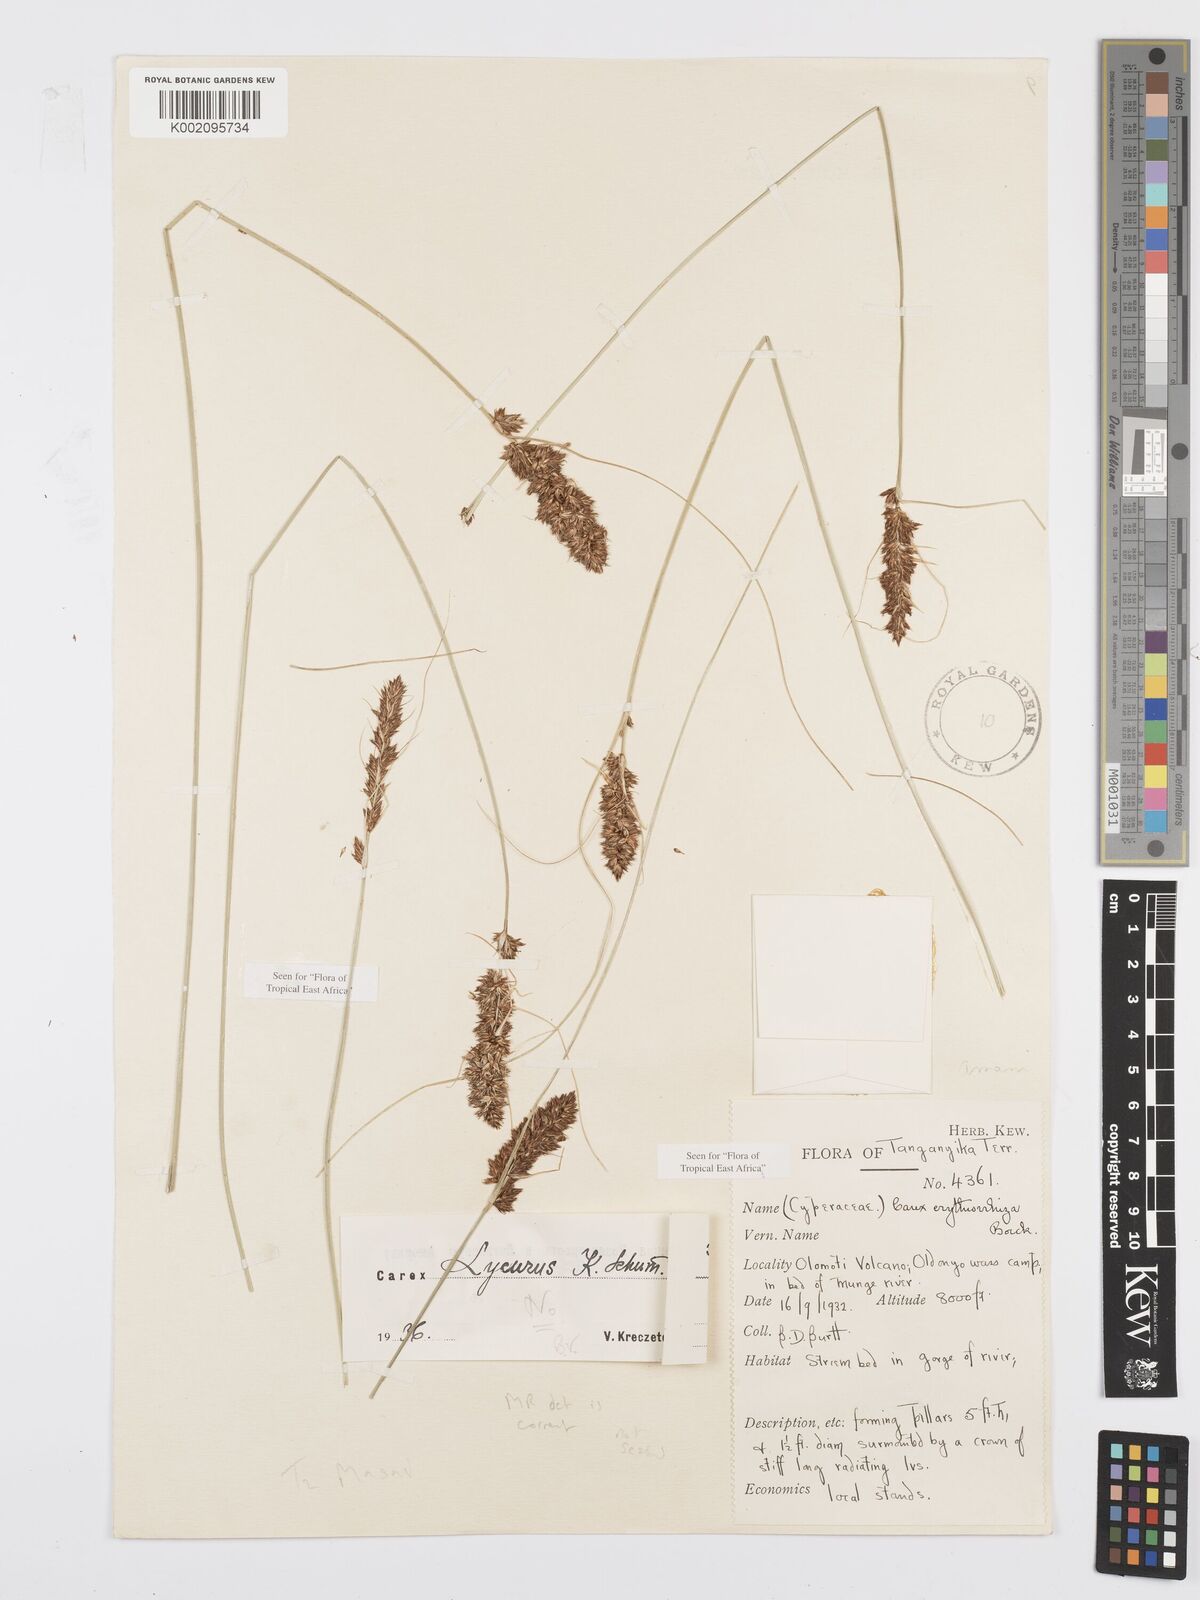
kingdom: Plantae
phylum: Tracheophyta
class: Liliopsida
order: Poales
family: Cyperaceae
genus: Carex
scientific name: Carex erythrorrhiza
